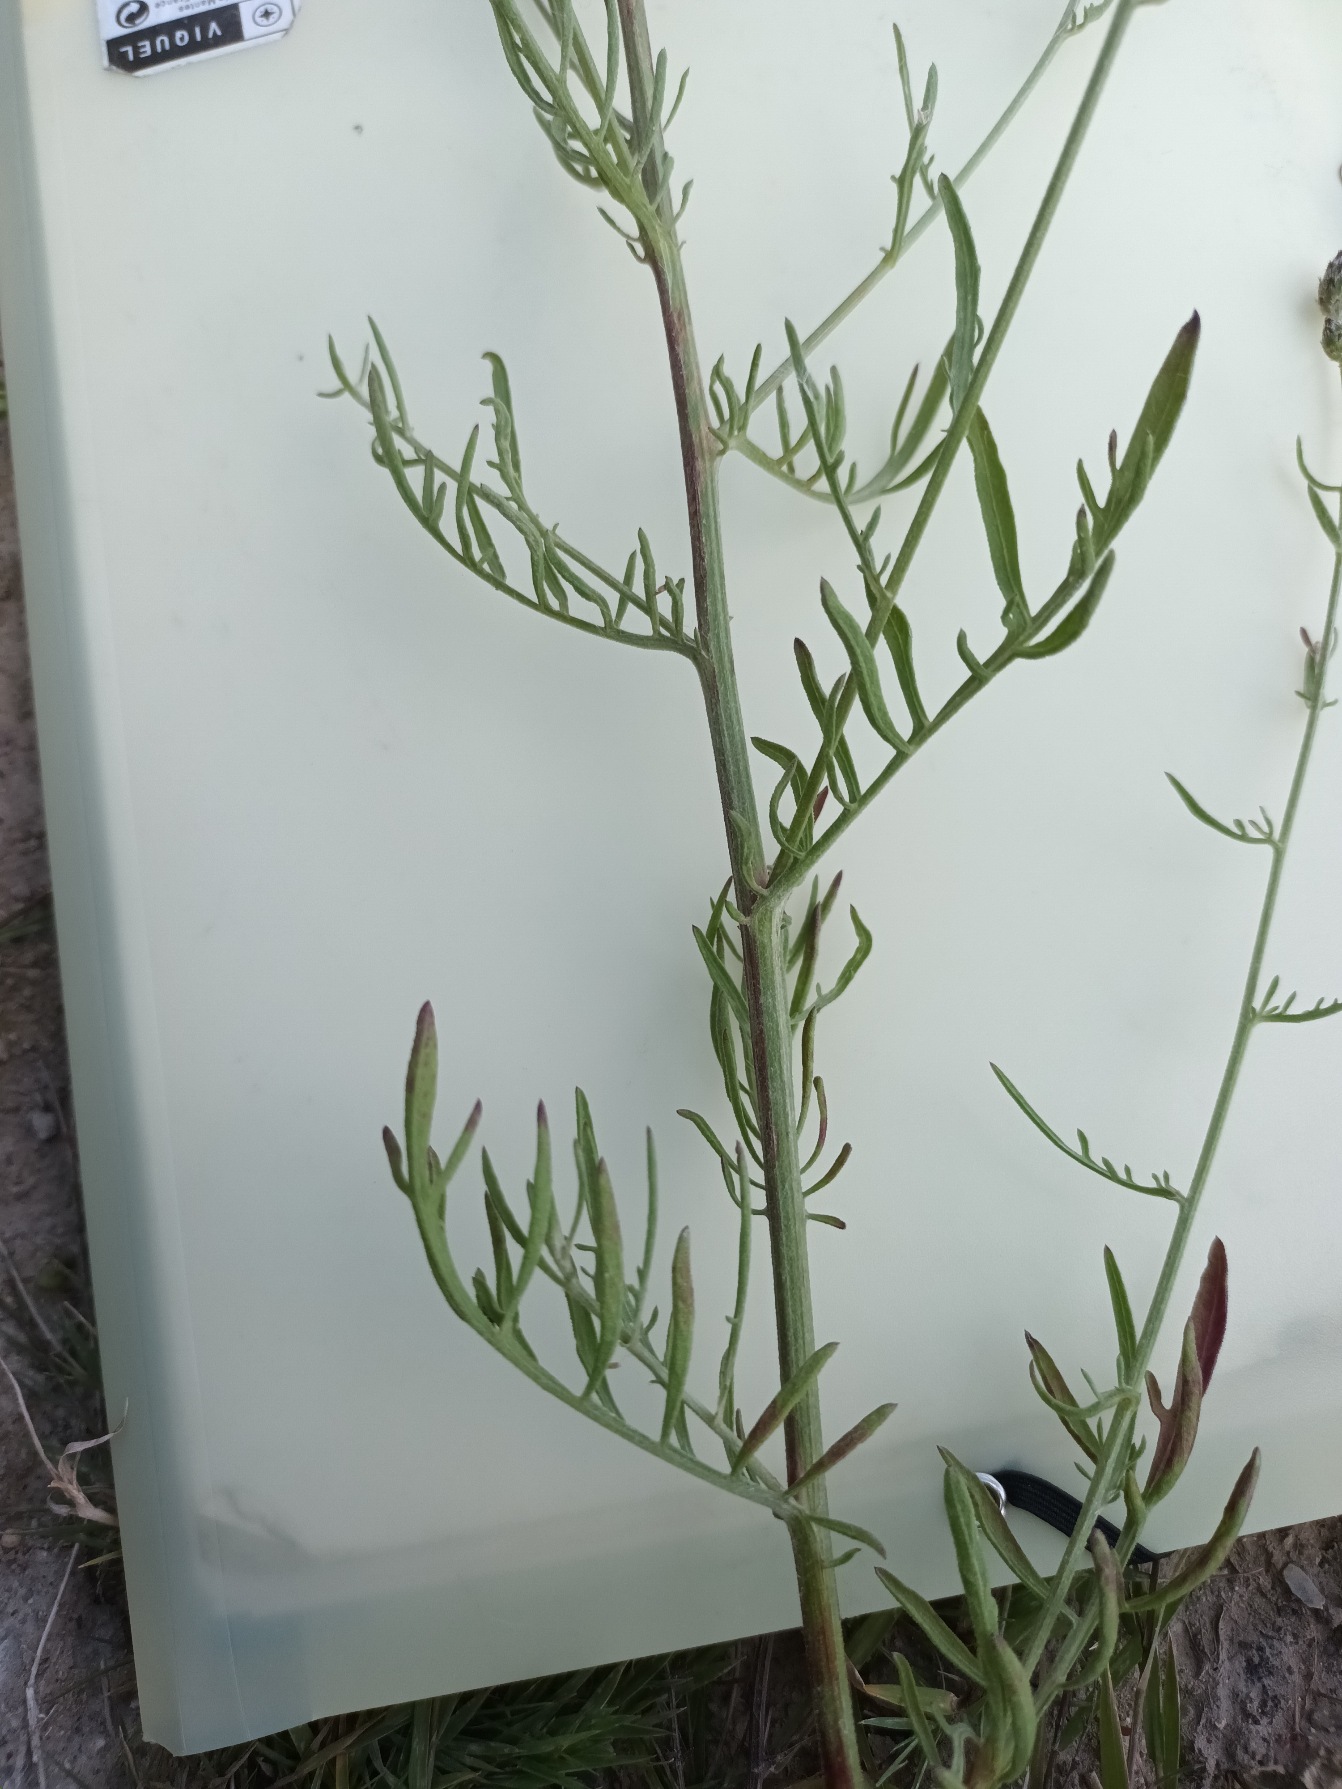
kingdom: Plantae
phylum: Tracheophyta
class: Magnoliopsida
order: Asterales
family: Asteraceae
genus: Centaurea
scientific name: Centaurea stoebe
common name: Småhovedet knopurt
